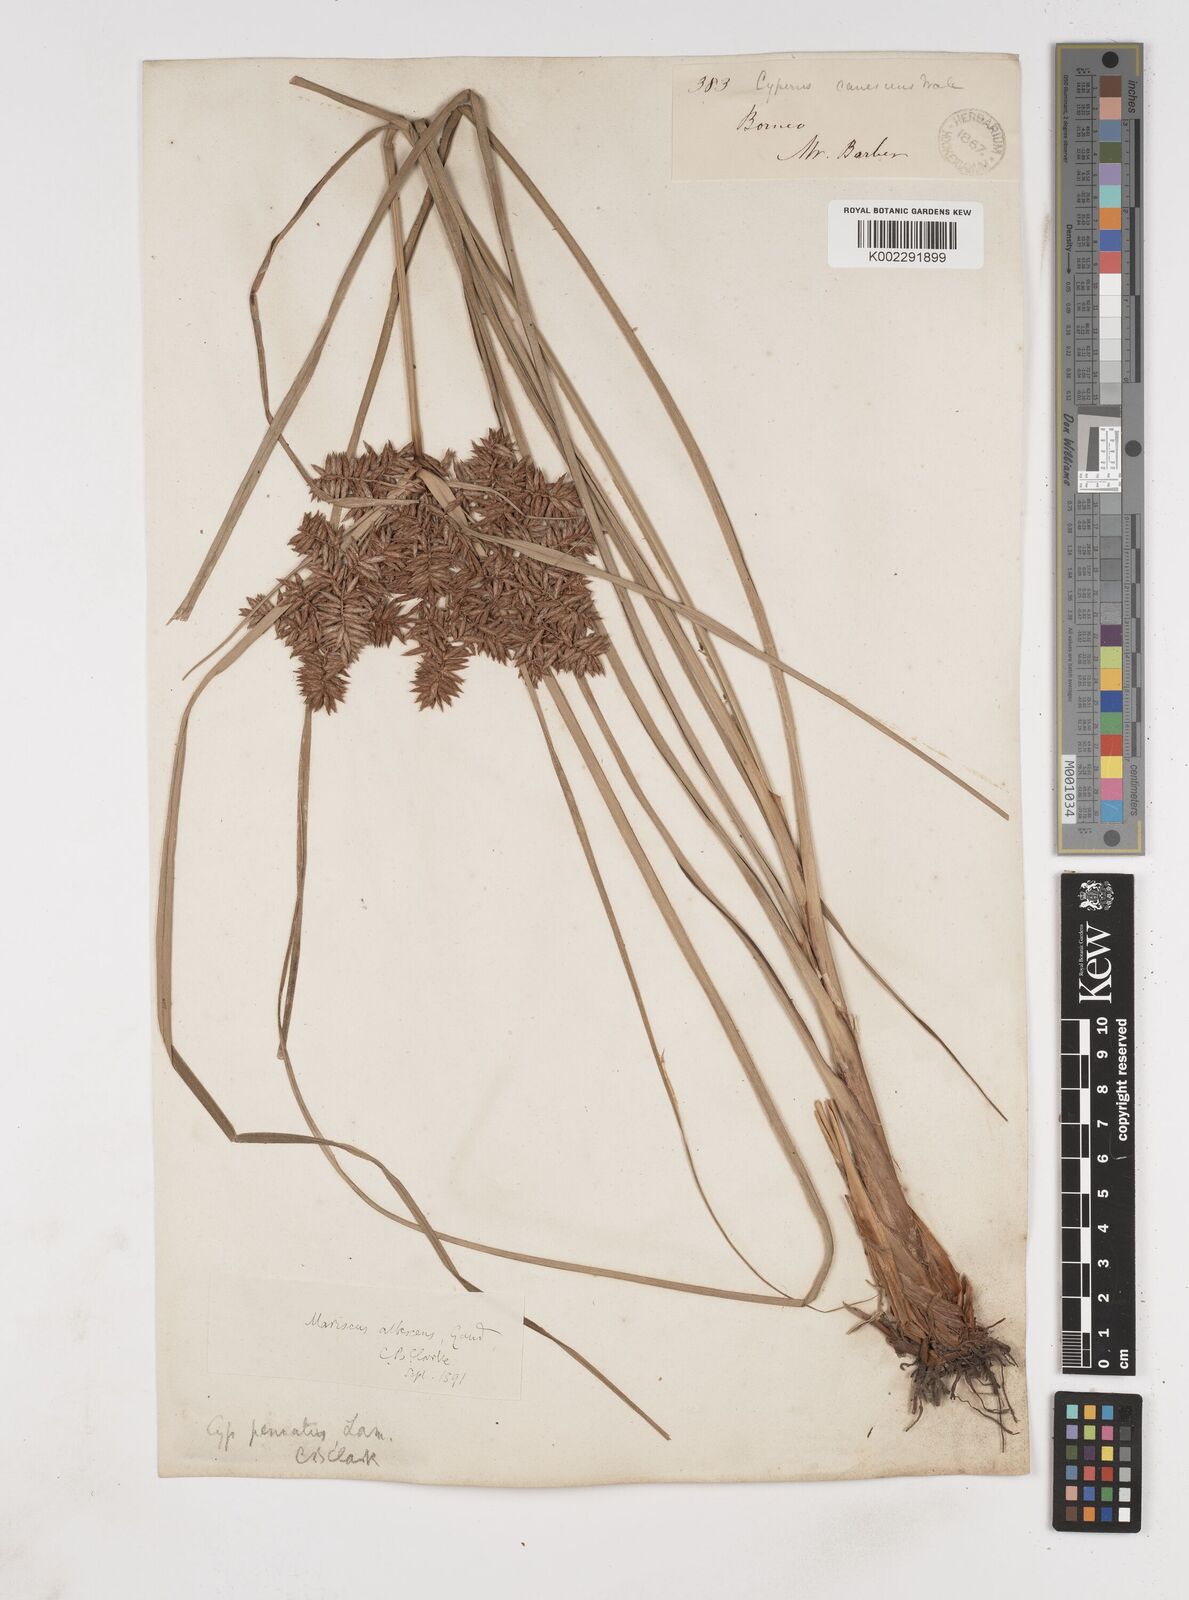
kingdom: Plantae
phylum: Tracheophyta
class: Liliopsida
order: Poales
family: Cyperaceae
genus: Cyperus
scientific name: Cyperus javanicus
